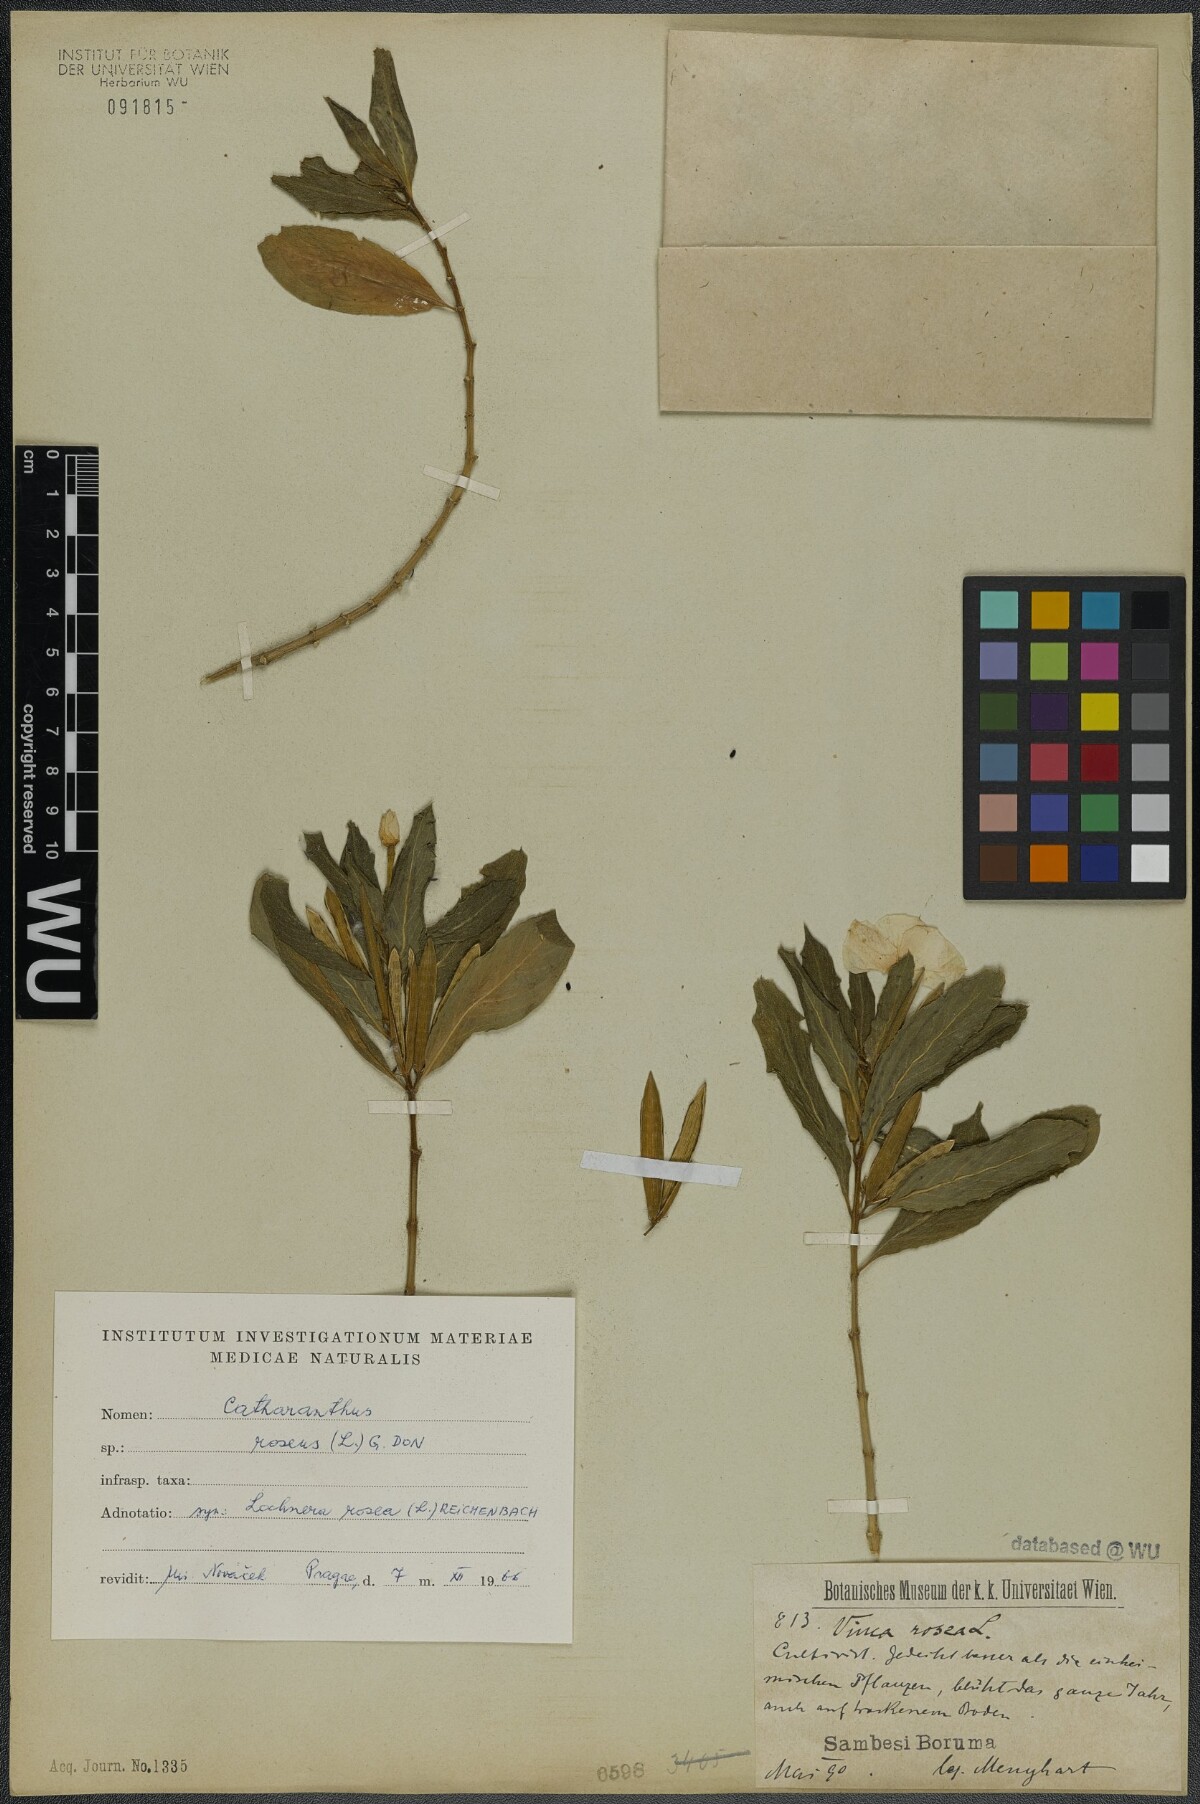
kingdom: Plantae
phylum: Tracheophyta
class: Magnoliopsida
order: Gentianales
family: Apocynaceae
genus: Catharanthus
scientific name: Catharanthus roseus
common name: Madagascar periwinkle
